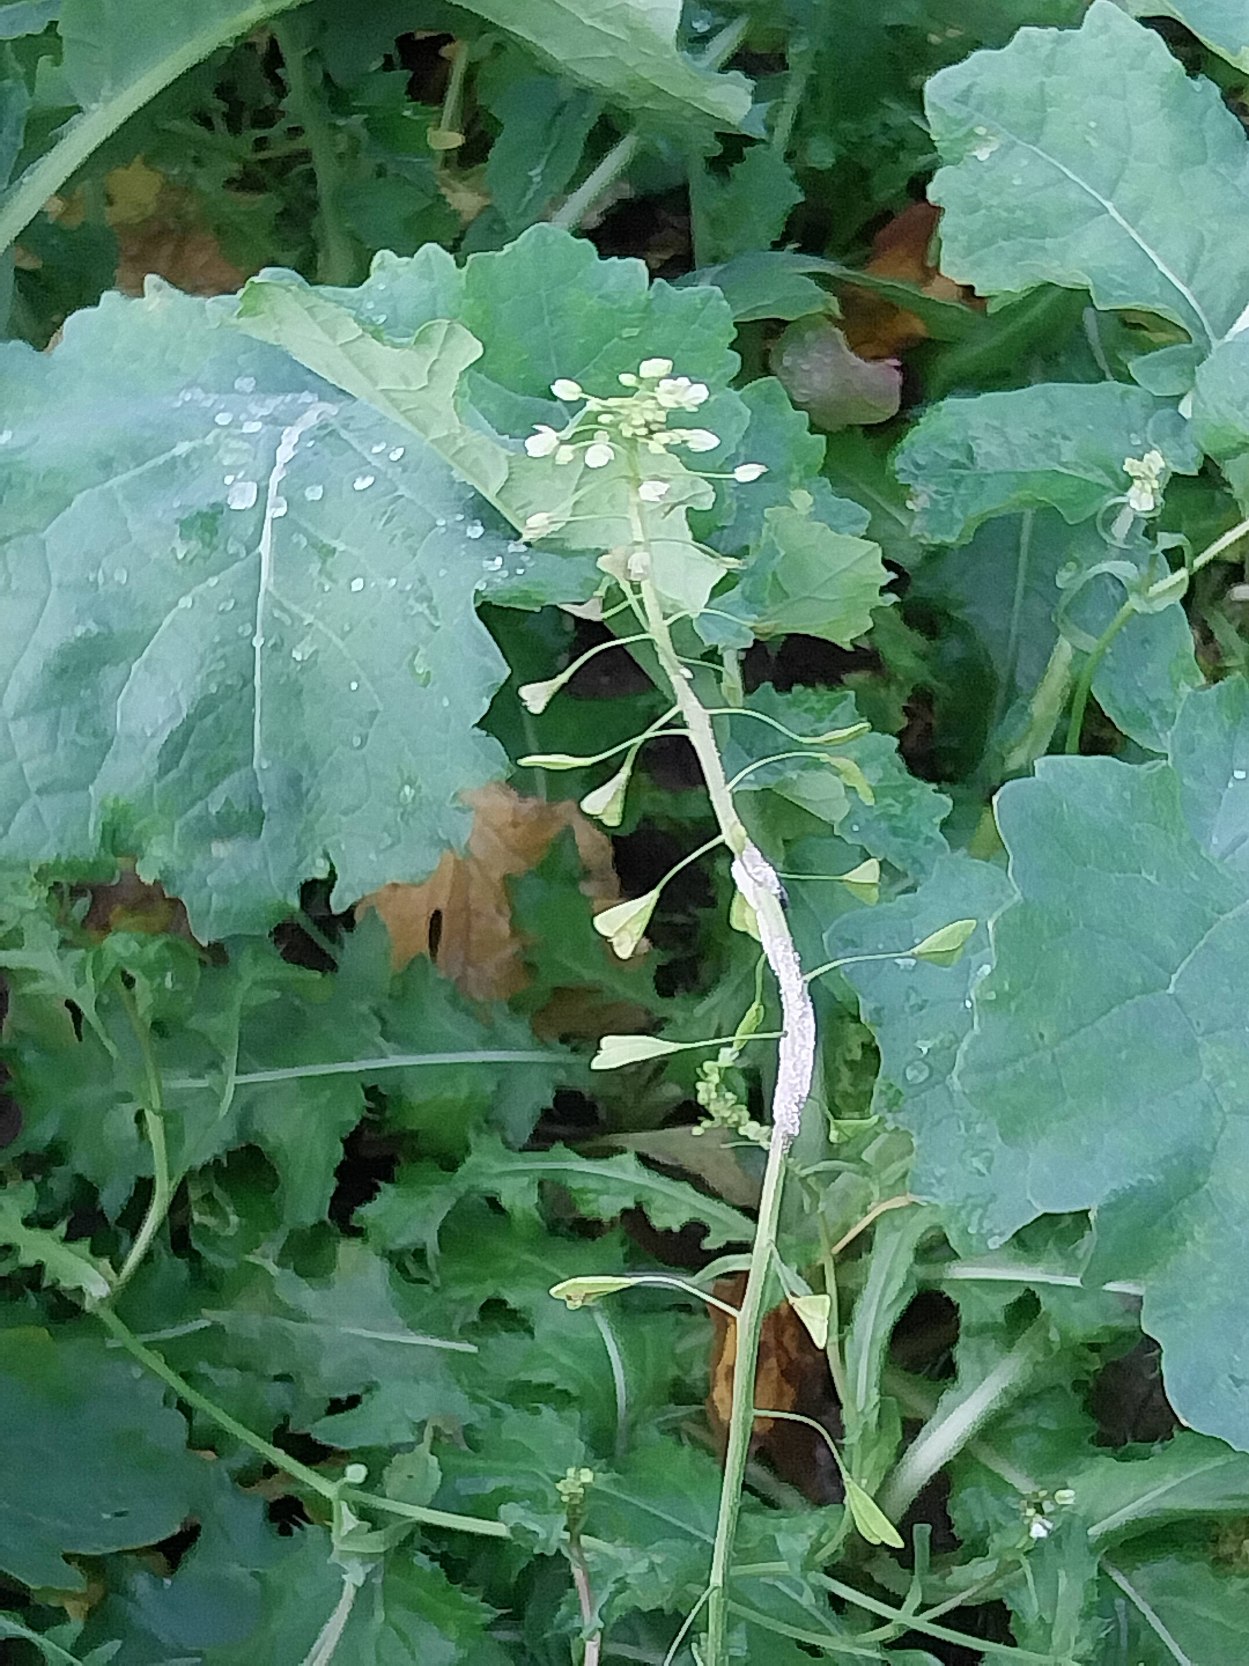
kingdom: Plantae
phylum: Tracheophyta
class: Magnoliopsida
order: Brassicales
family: Brassicaceae
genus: Capsella
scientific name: Capsella bursa-pastoris
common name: Hyrdetaske
